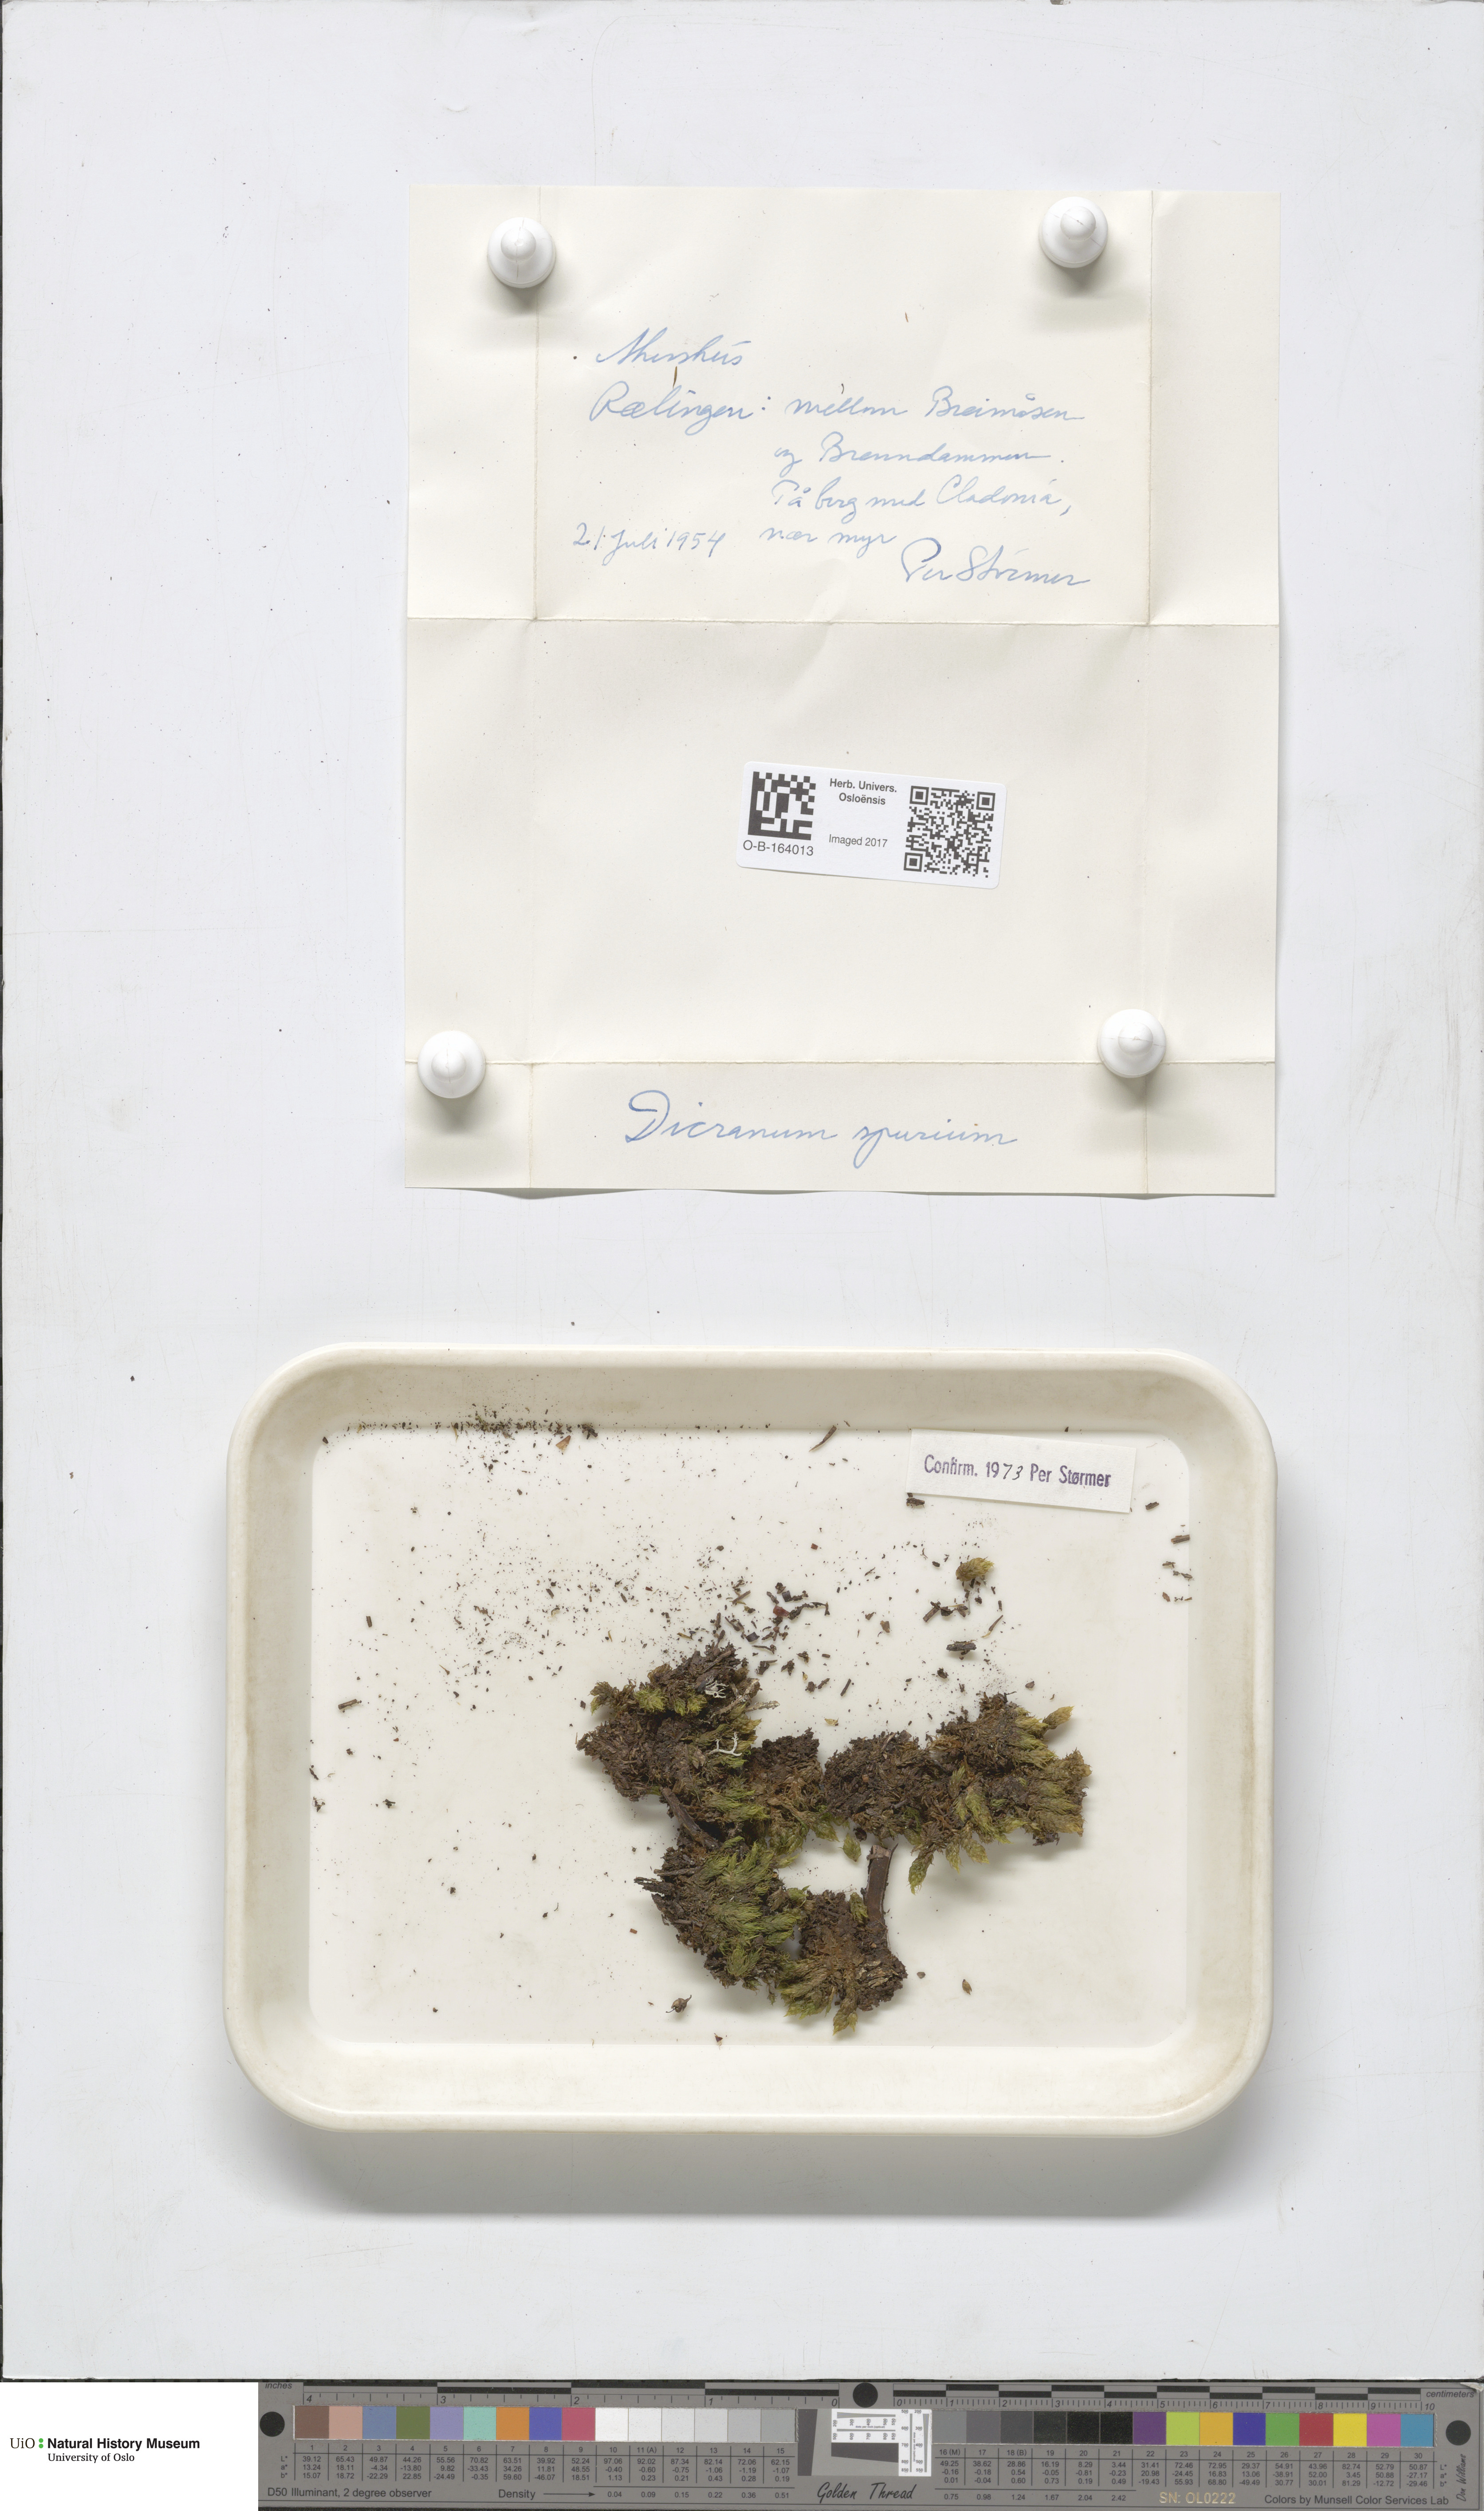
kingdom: Plantae
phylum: Bryophyta
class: Bryopsida
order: Dicranales
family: Dicranaceae
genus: Dicranum
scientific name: Dicranum spurium
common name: Spurred broom moss
